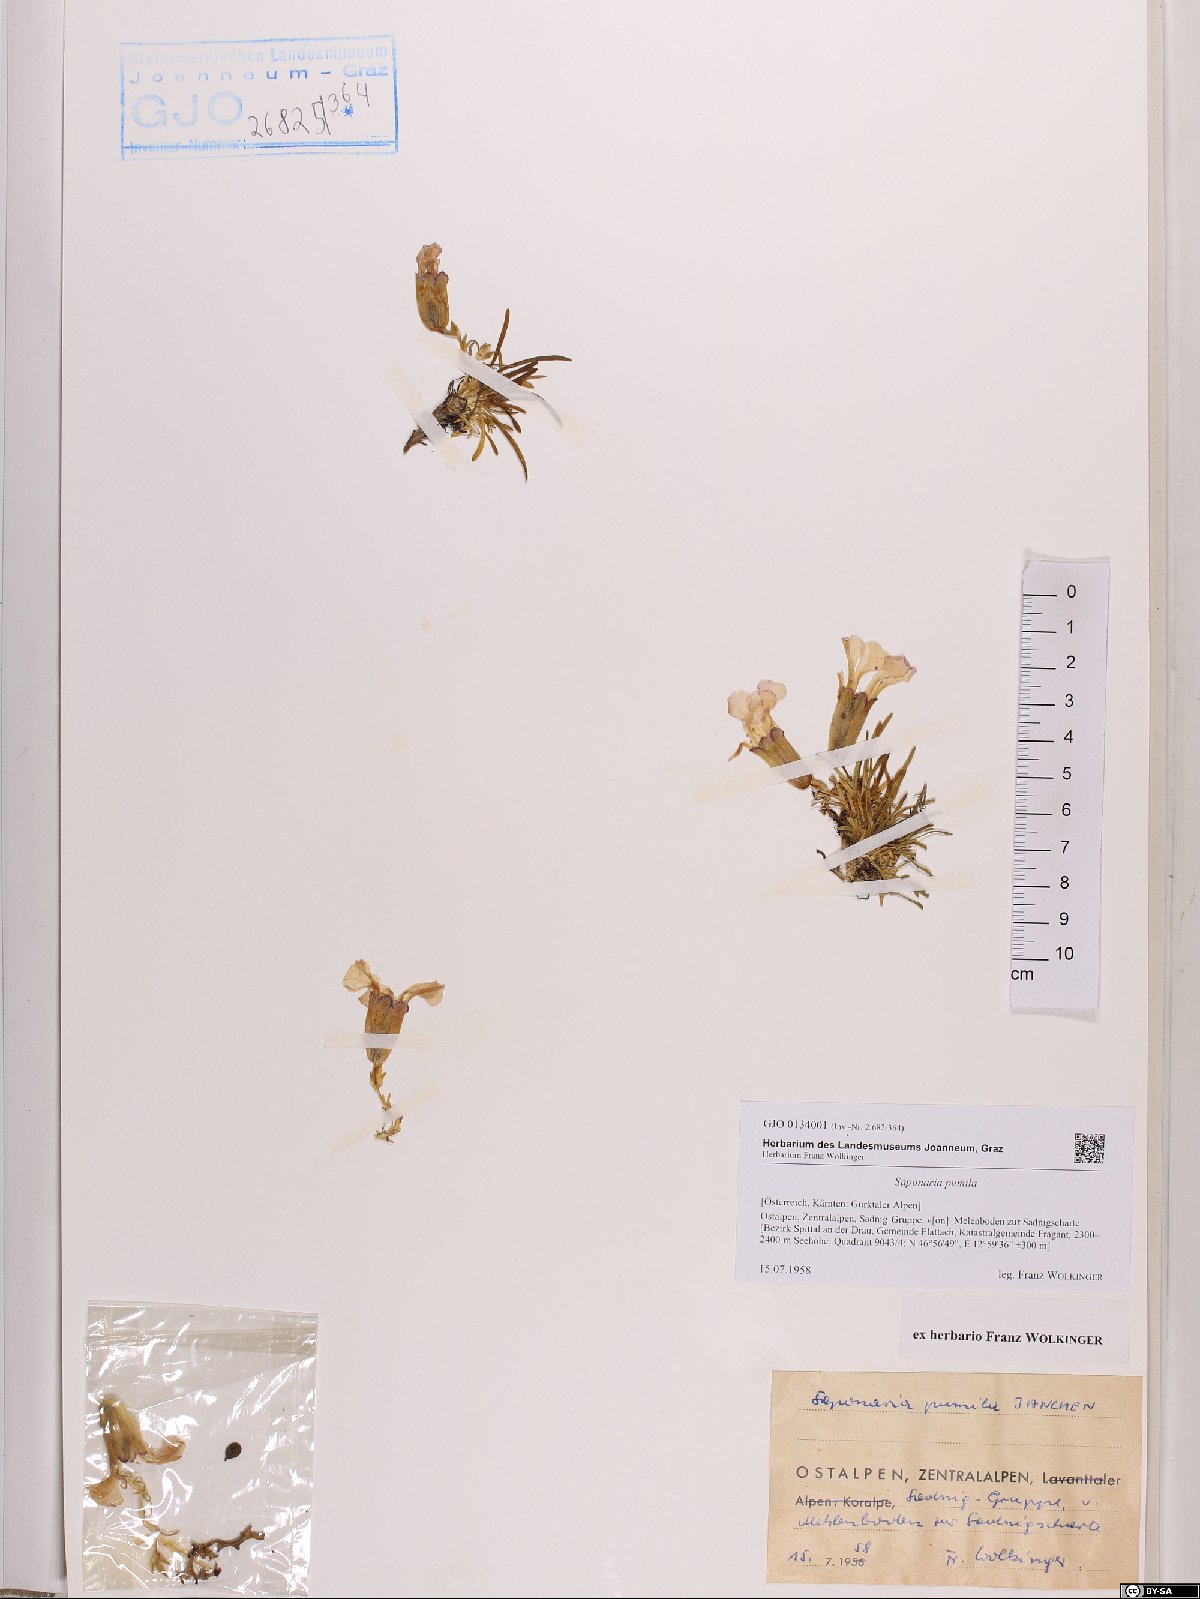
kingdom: Plantae
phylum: Tracheophyta
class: Magnoliopsida
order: Caryophyllales
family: Caryophyllaceae
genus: Saponaria
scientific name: Saponaria pumila
